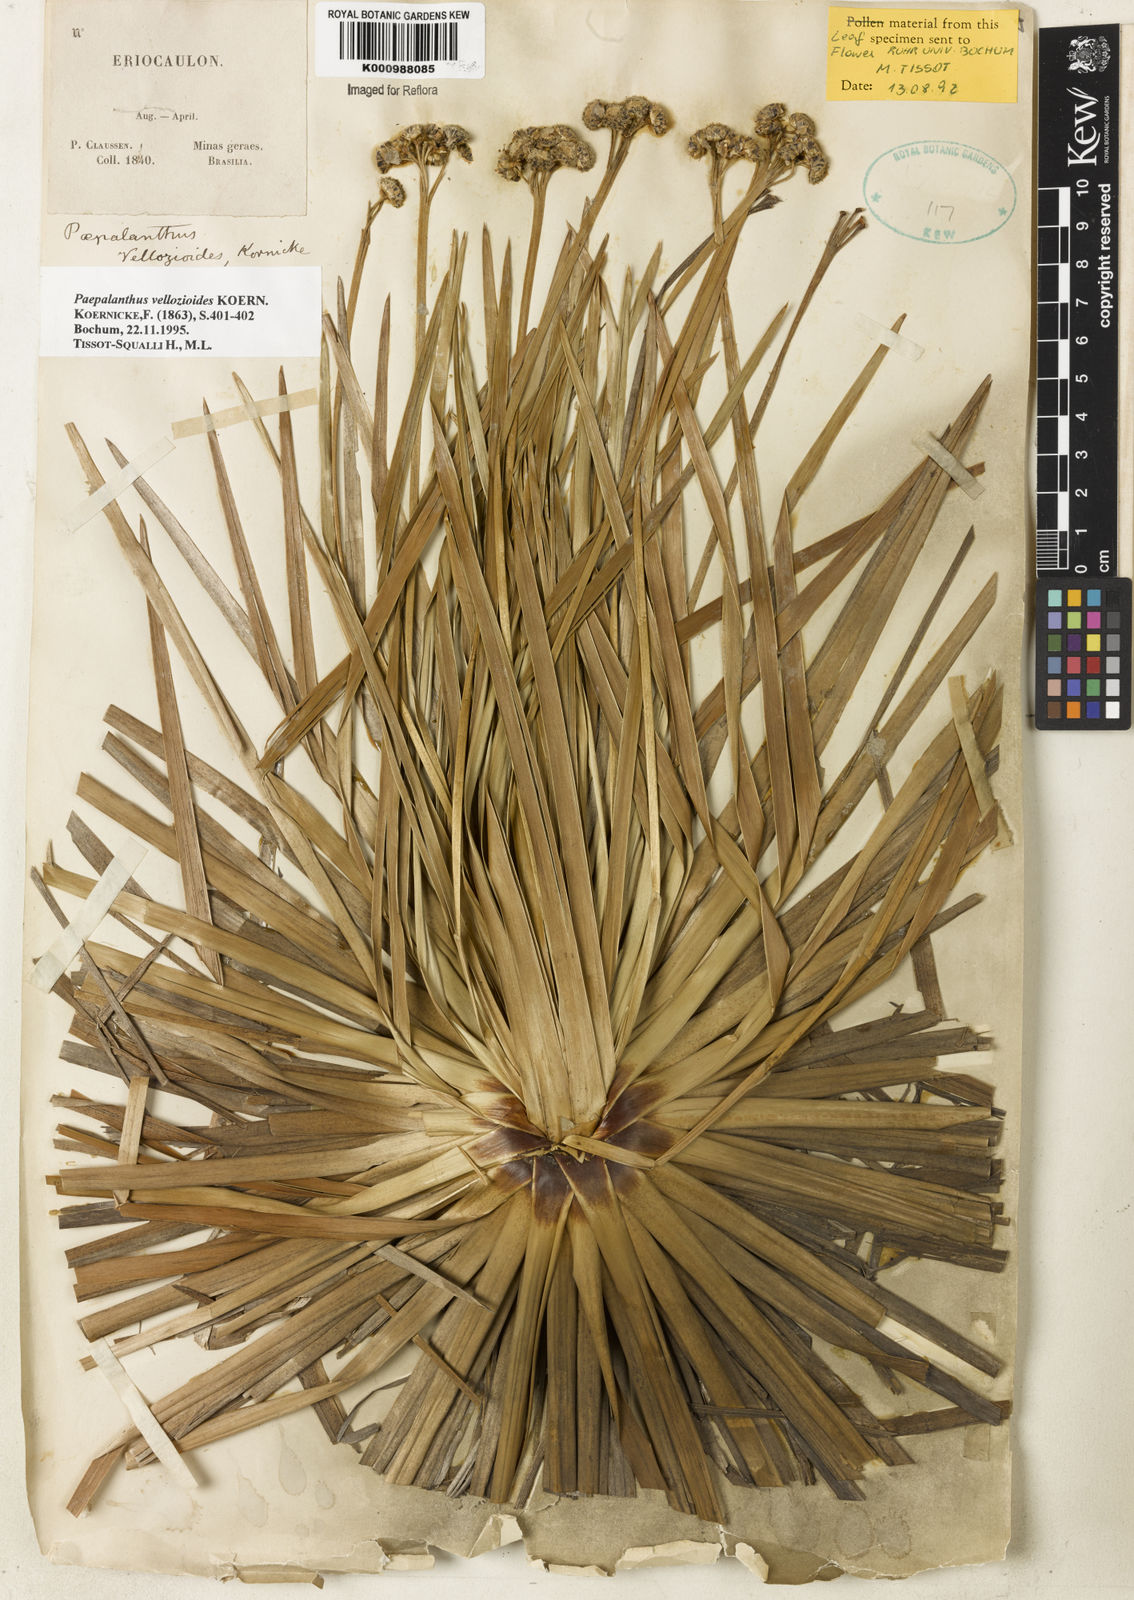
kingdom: Plantae
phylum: Tracheophyta
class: Liliopsida
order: Poales
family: Eriocaulaceae
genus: Paepalanthus
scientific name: Paepalanthus
